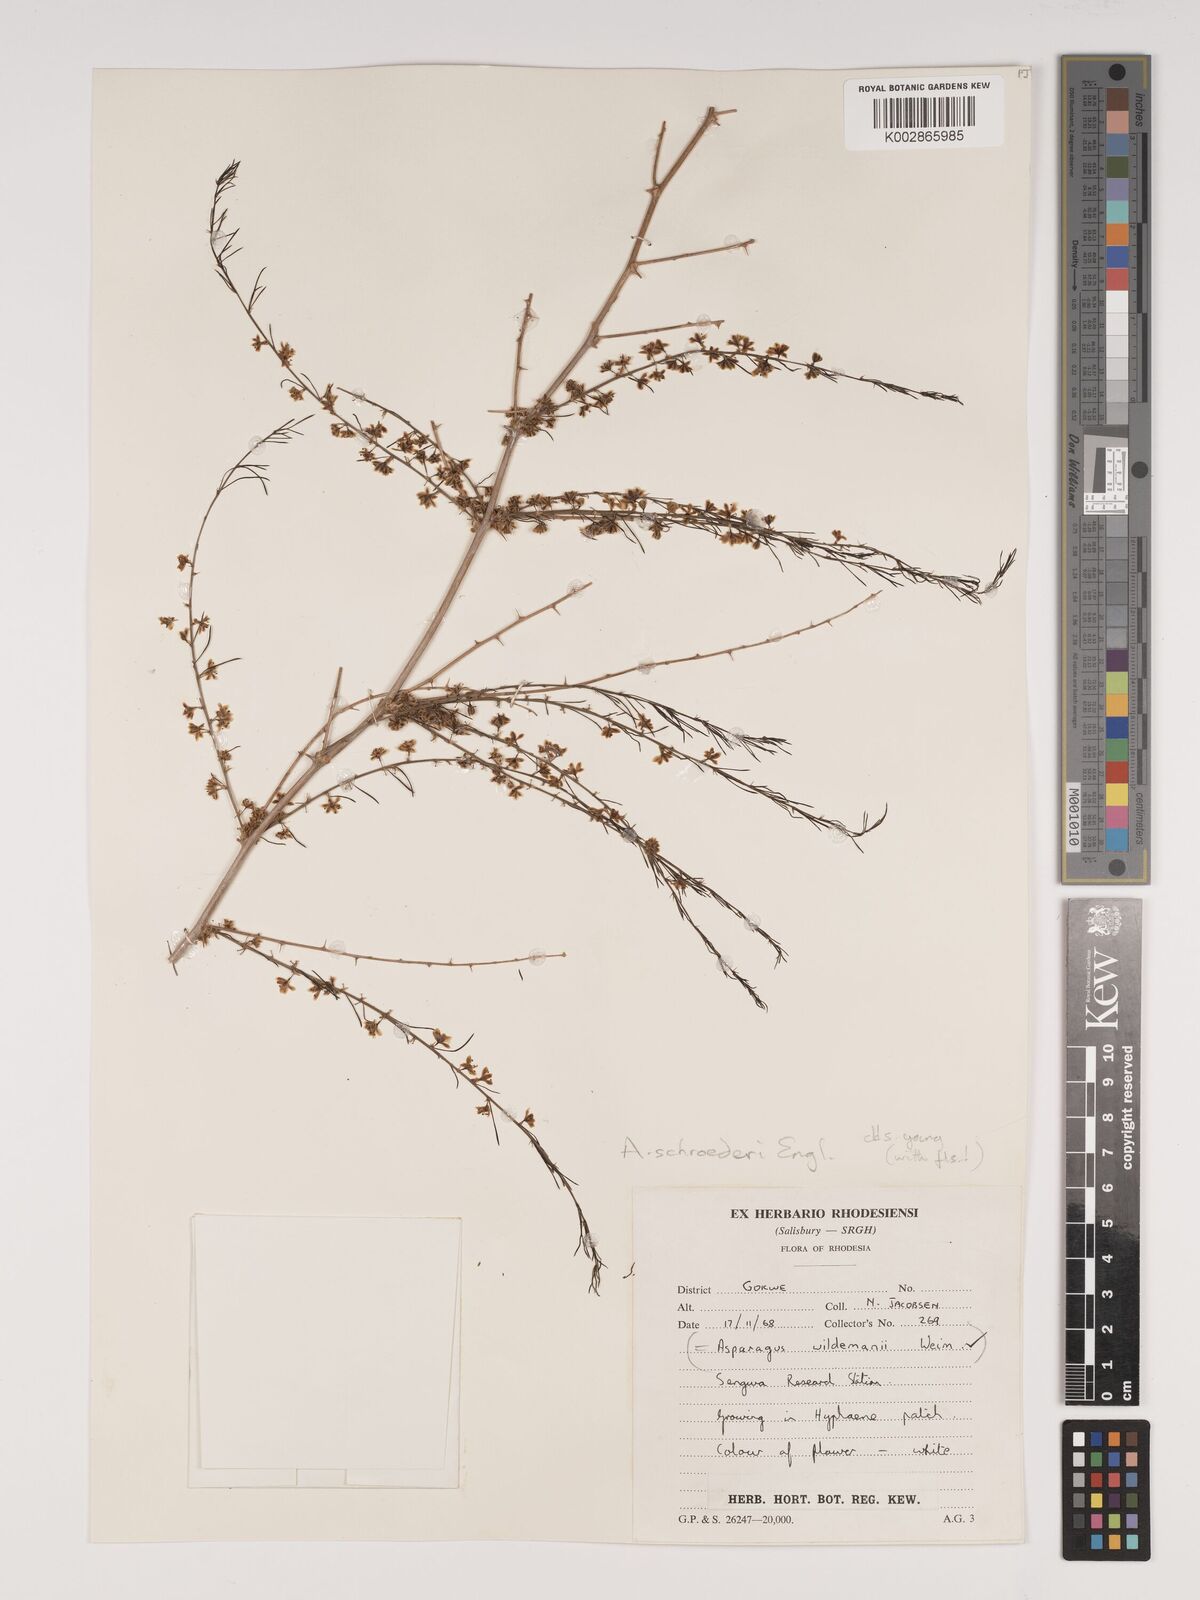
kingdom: Plantae
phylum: Tracheophyta
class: Liliopsida
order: Asparagales
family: Asparagaceae
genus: Asparagus
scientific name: Asparagus schroederi
